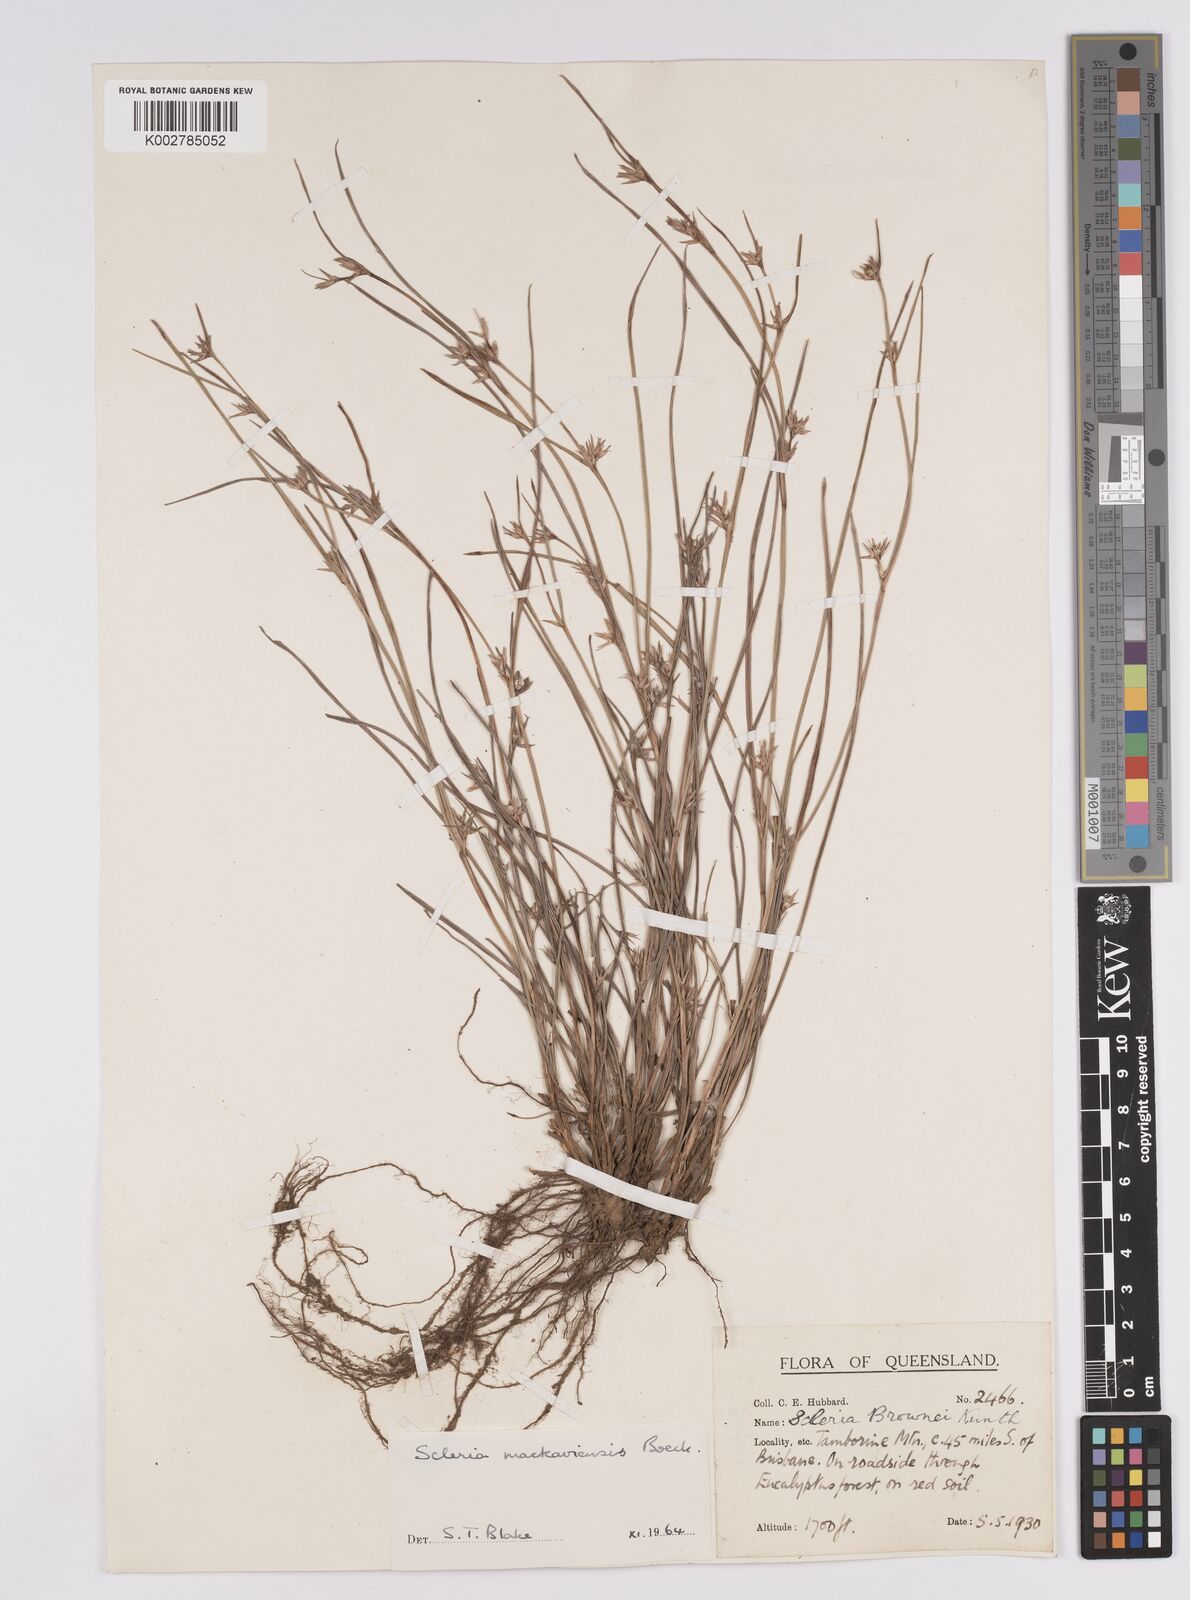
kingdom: Plantae
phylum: Tracheophyta
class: Liliopsida
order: Poales
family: Cyperaceae
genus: Scleria
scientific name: Scleria mackaviensis
